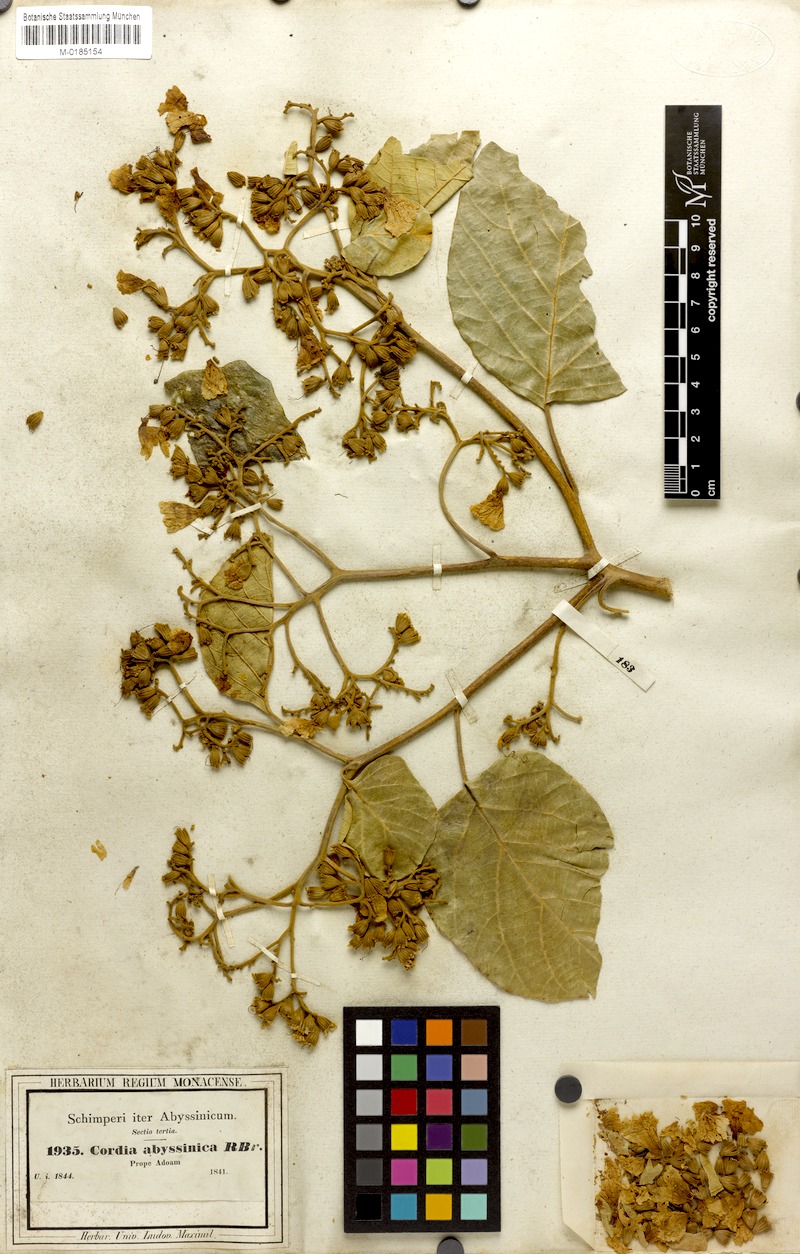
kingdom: Plantae
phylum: Tracheophyta
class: Magnoliopsida
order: Boraginales
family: Cordiaceae
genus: Cordia
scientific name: Cordia africana
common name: Large-leaved cordia
